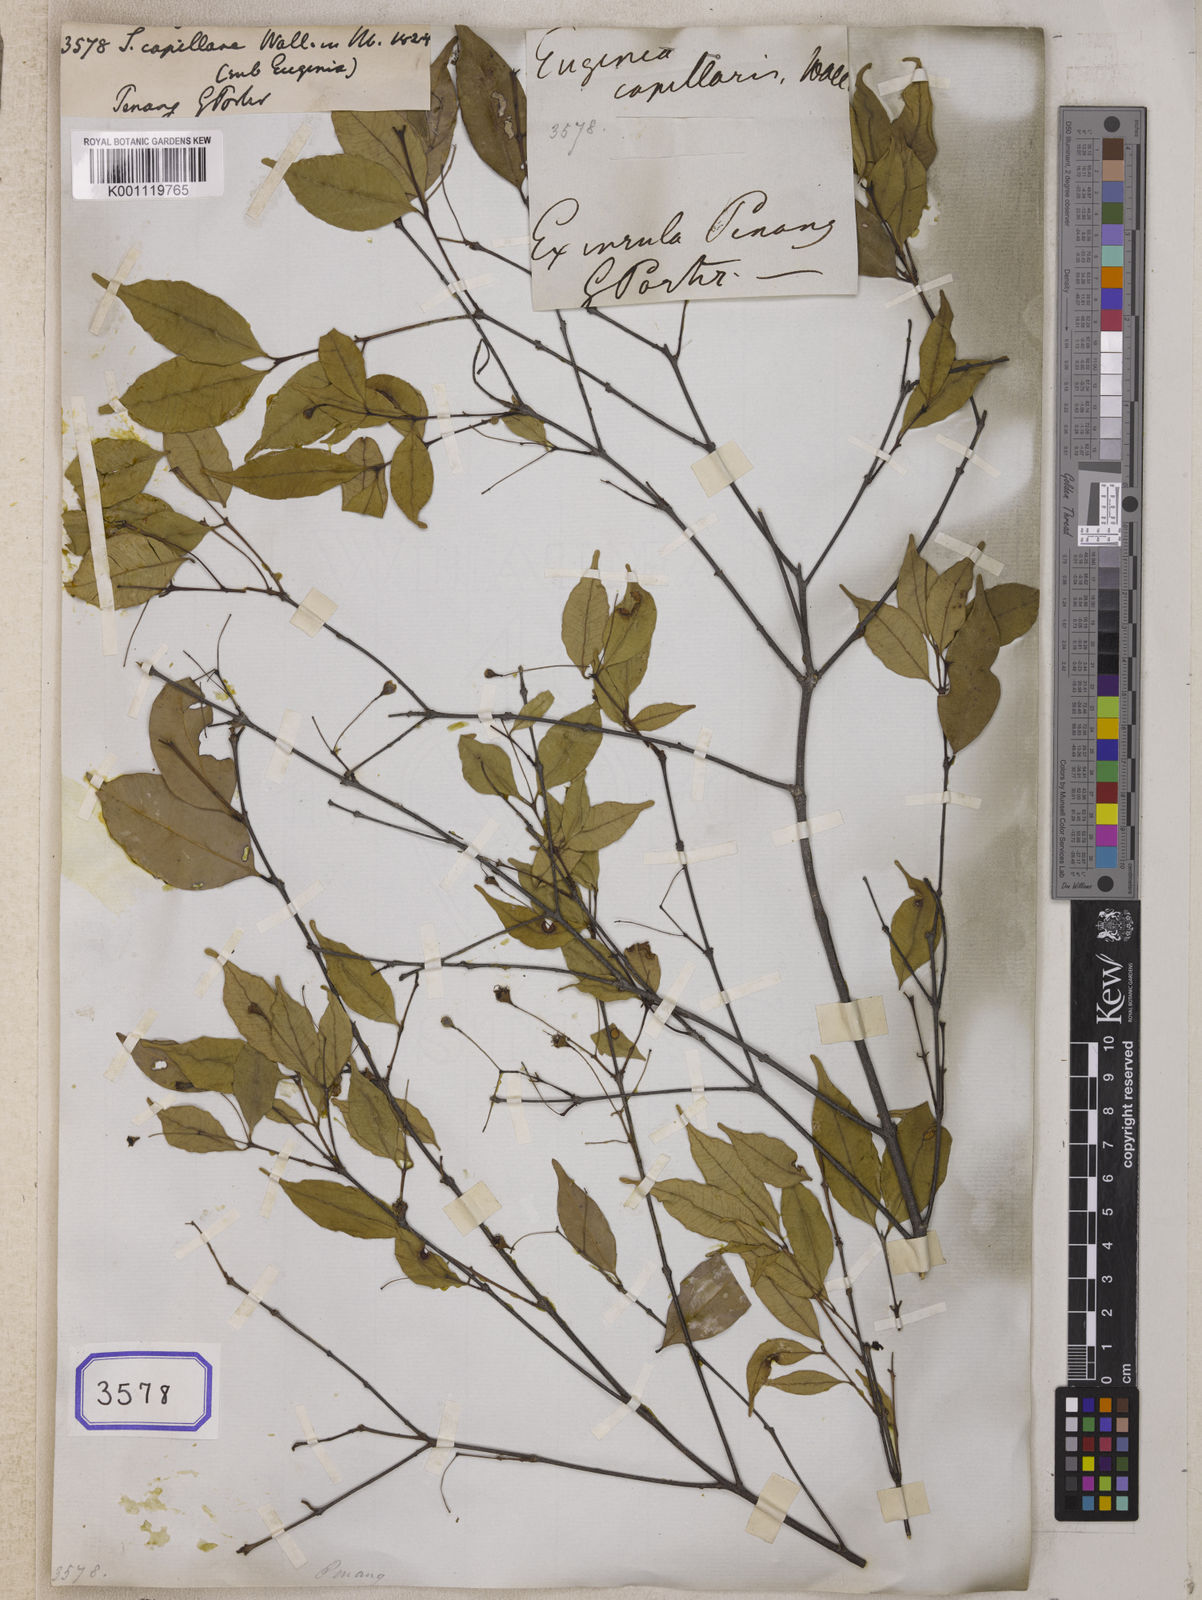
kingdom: Plantae
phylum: Tracheophyta
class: Magnoliopsida
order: Myrtales
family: Myrtaceae
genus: Syzygium
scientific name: Syzygium
